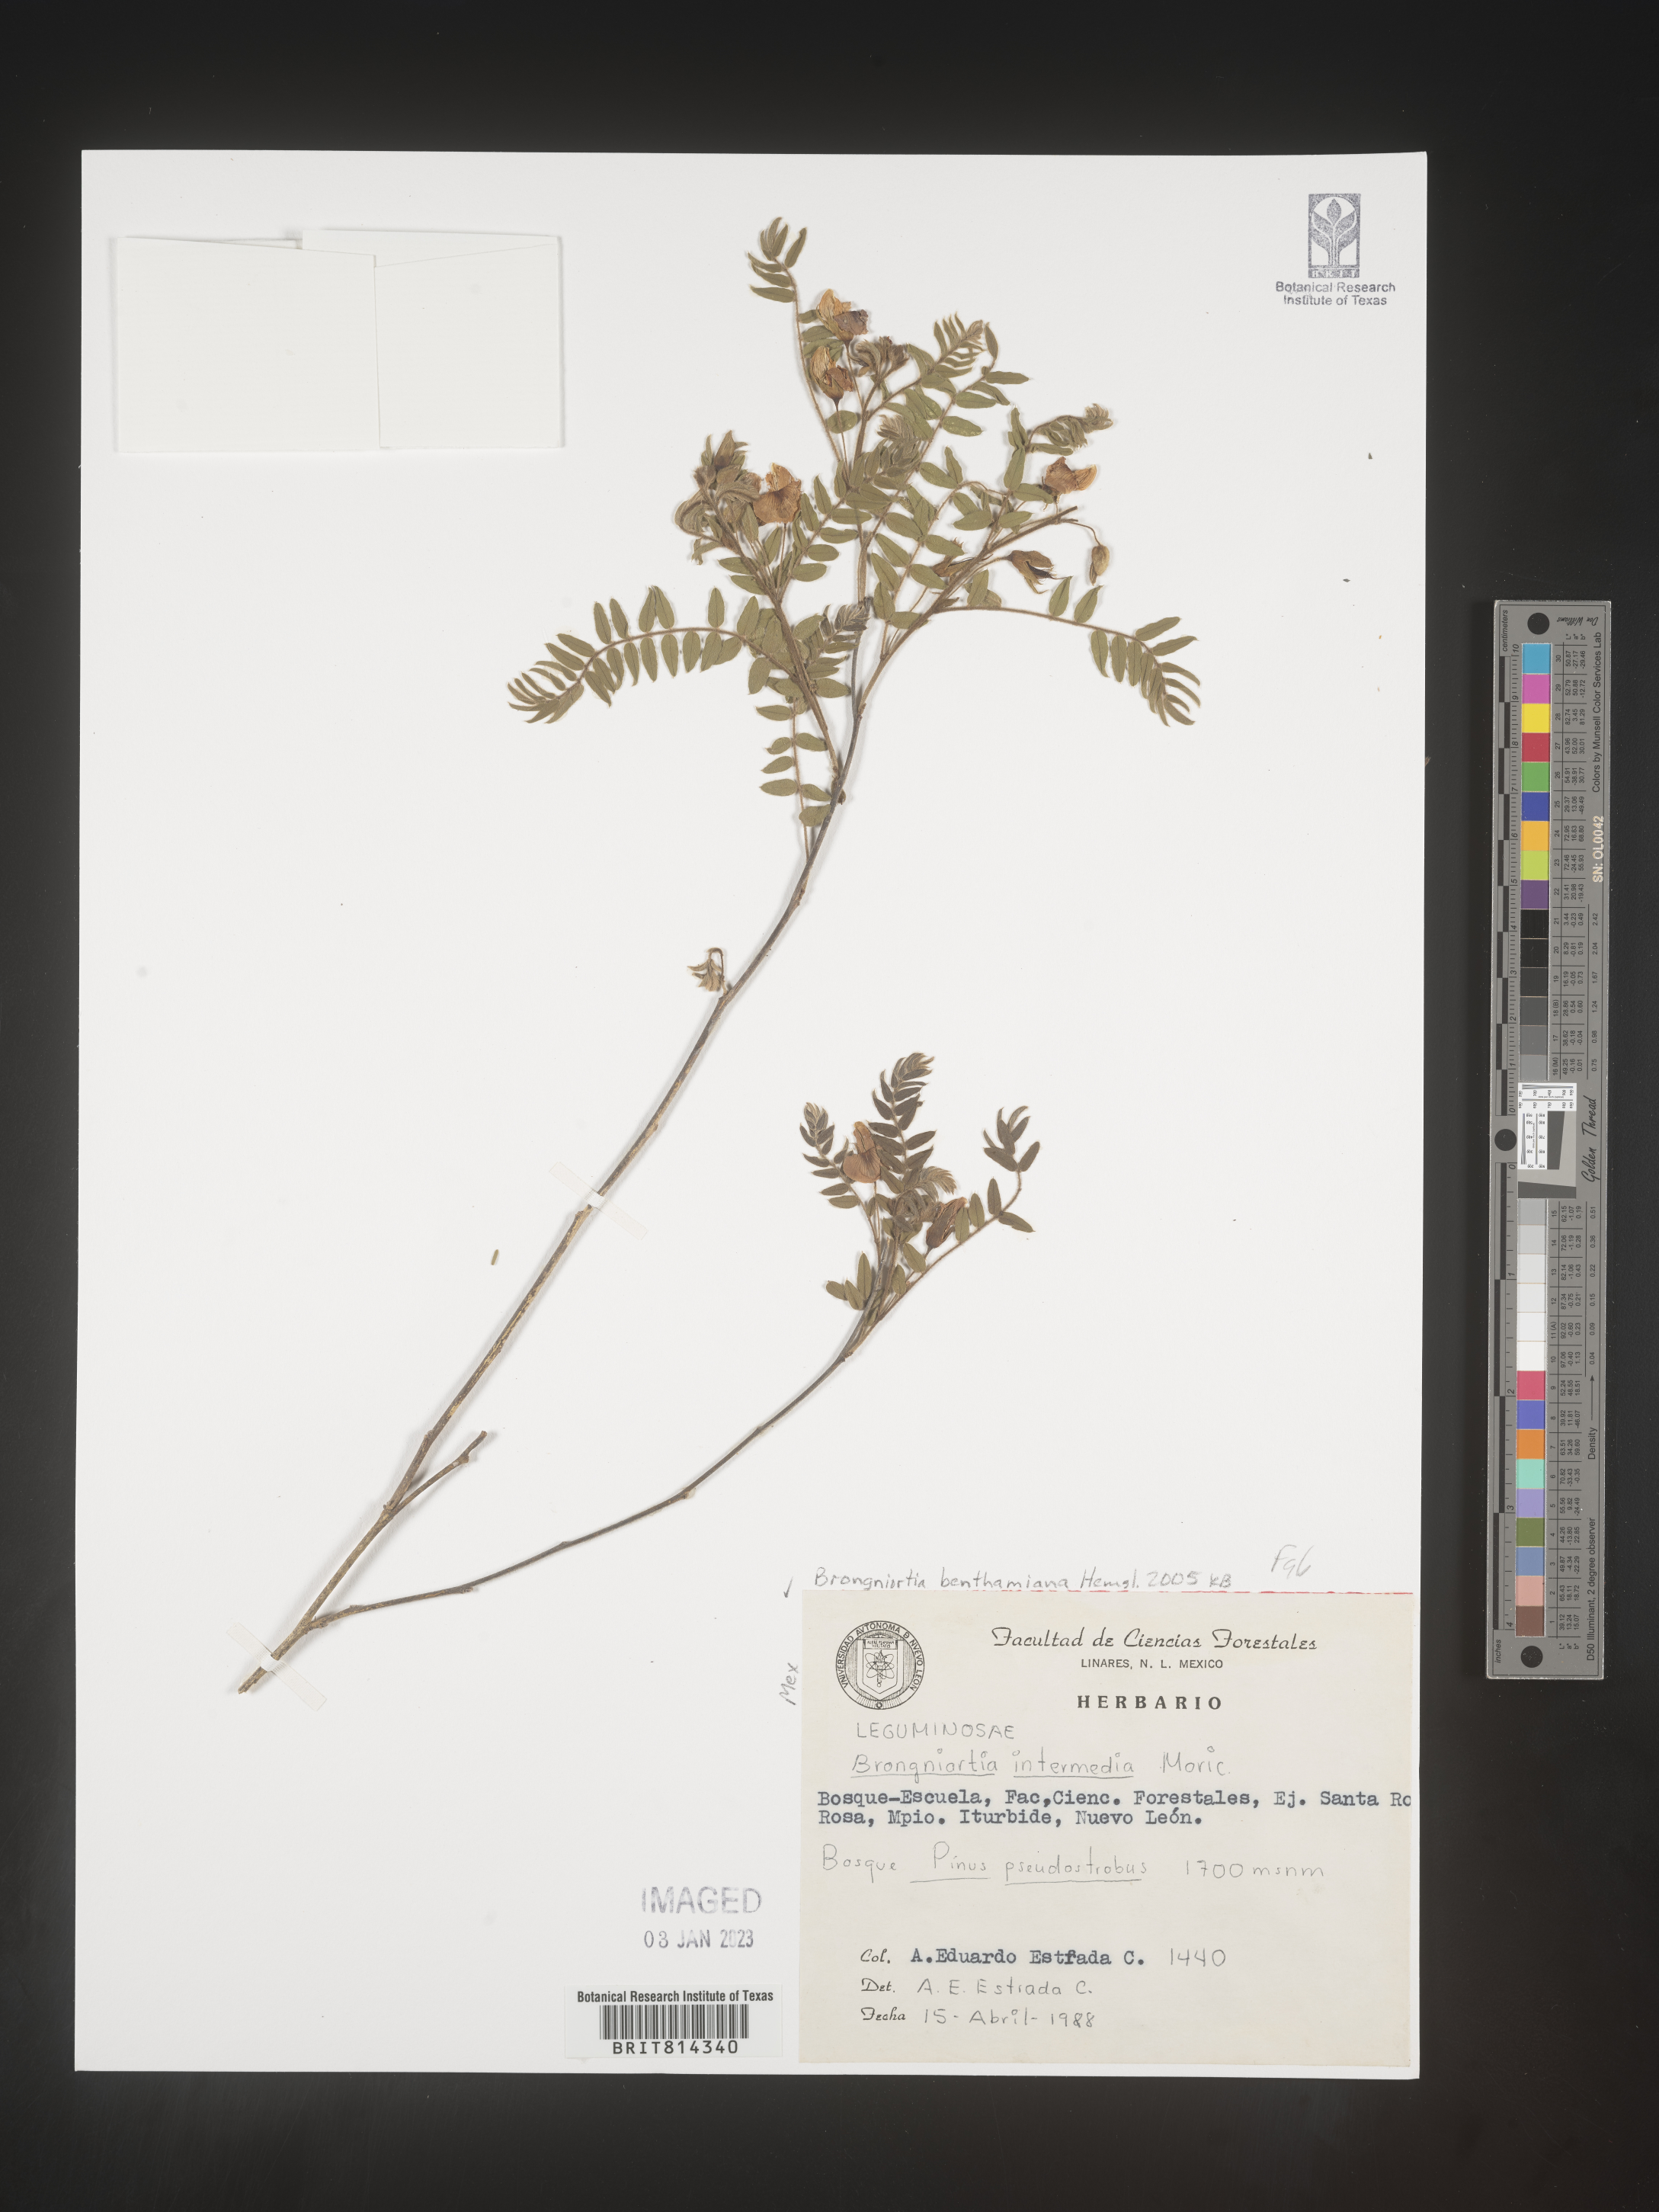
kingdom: Plantae
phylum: Tracheophyta
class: Magnoliopsida
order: Fabales
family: Fabaceae
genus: Brongniartia
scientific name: Brongniartia
